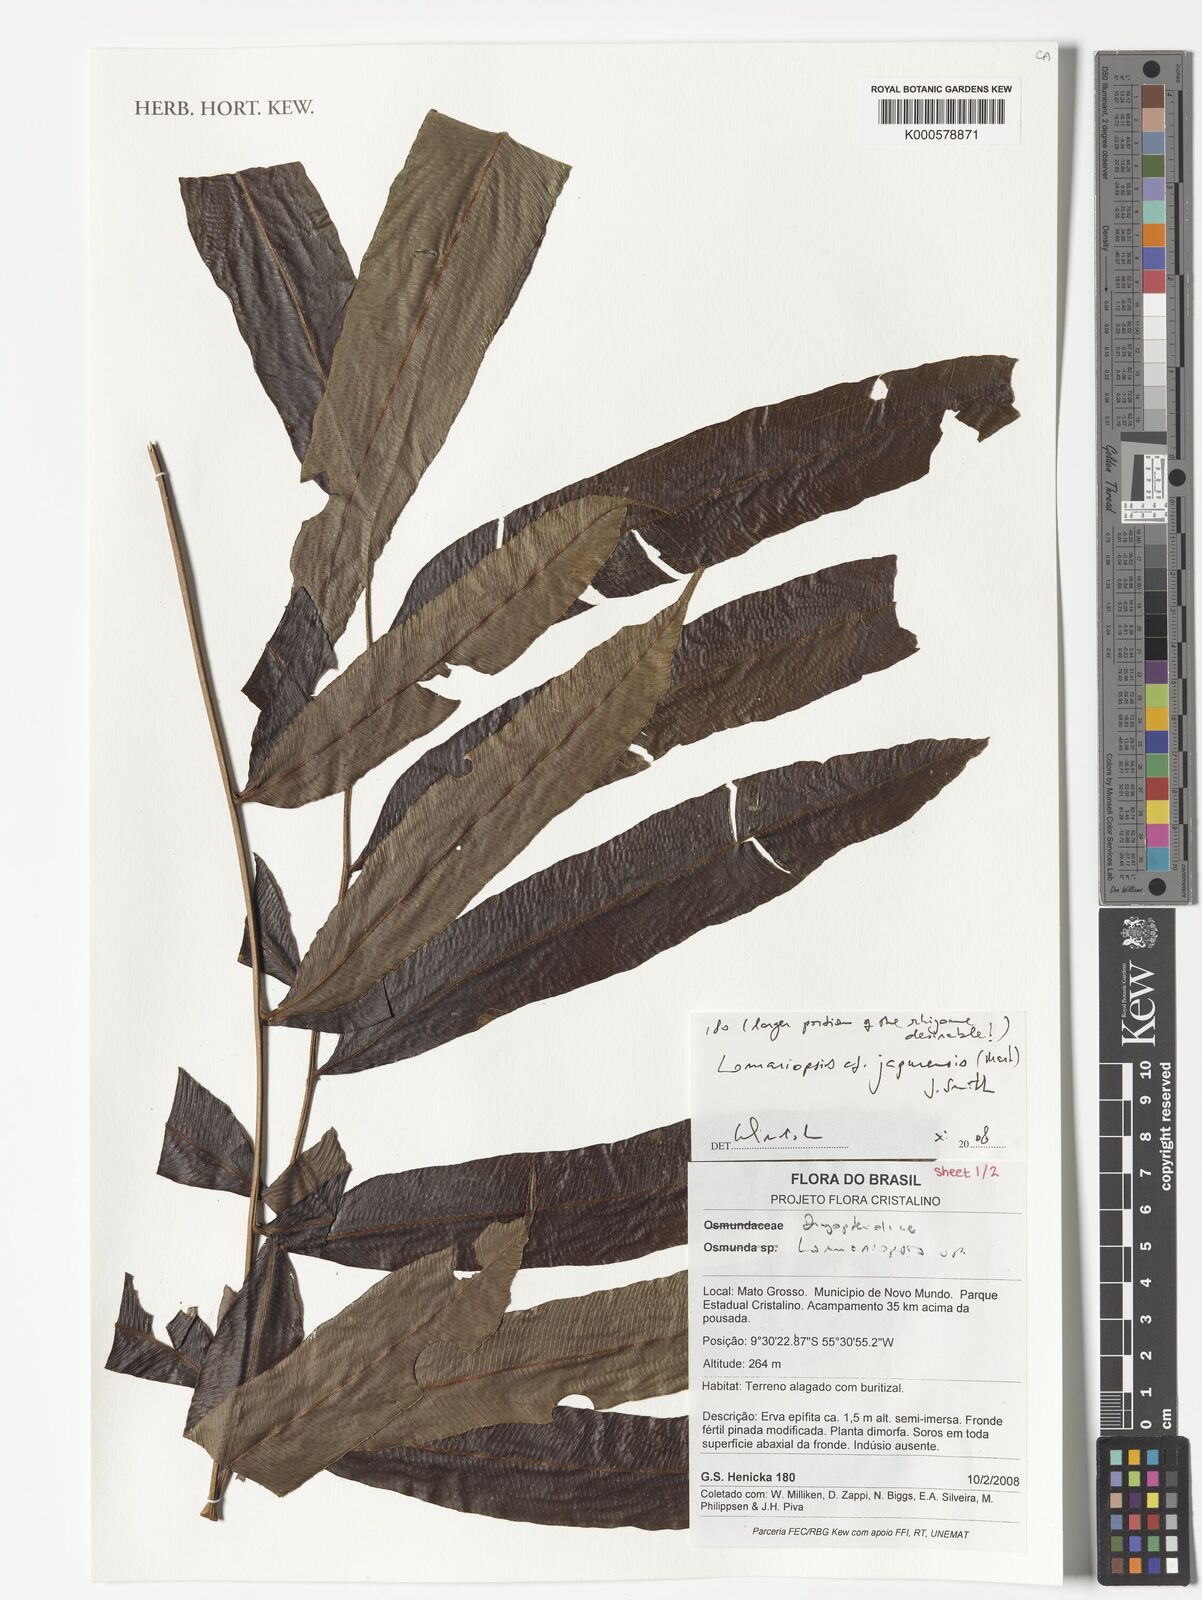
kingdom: Plantae
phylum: Tracheophyta
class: Polypodiopsida
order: Polypodiales
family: Lomariopsidaceae
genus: Lomariopsis
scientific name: Lomariopsis japurensis
